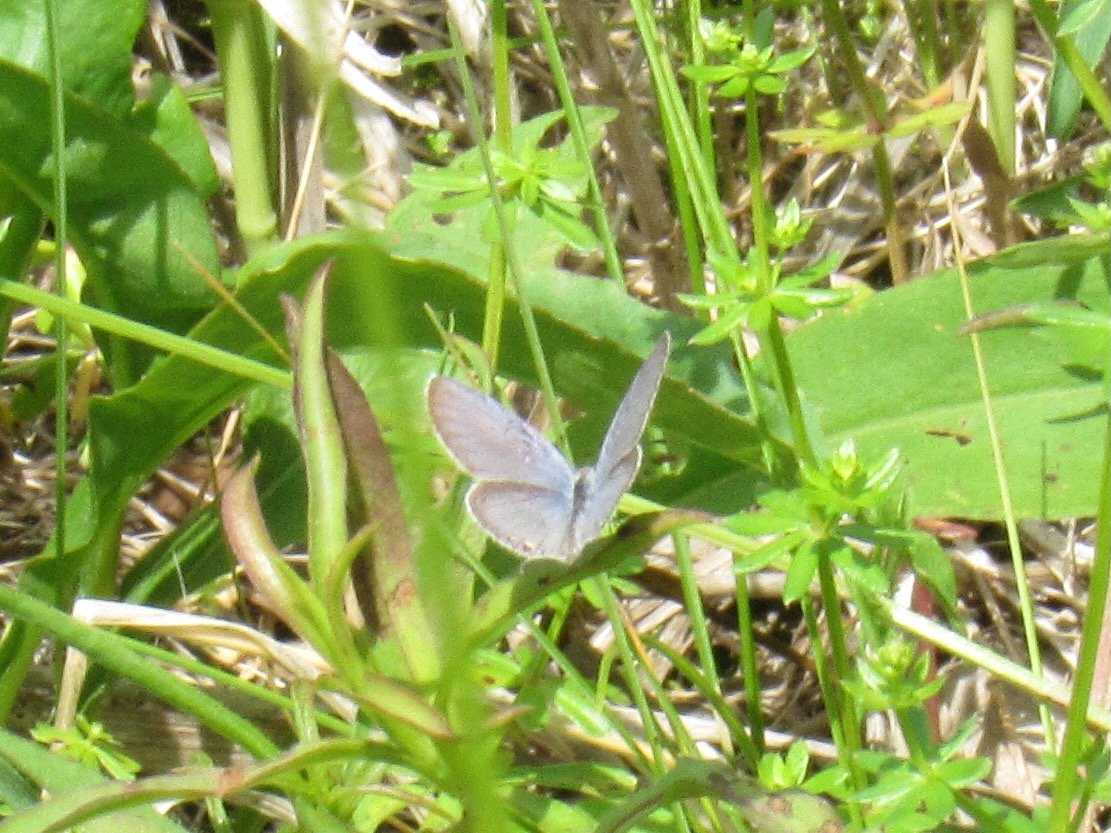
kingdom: Animalia
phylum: Arthropoda
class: Insecta
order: Lepidoptera
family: Lycaenidae
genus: Elkalyce
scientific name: Elkalyce comyntas
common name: Eastern Tailed-Blue
